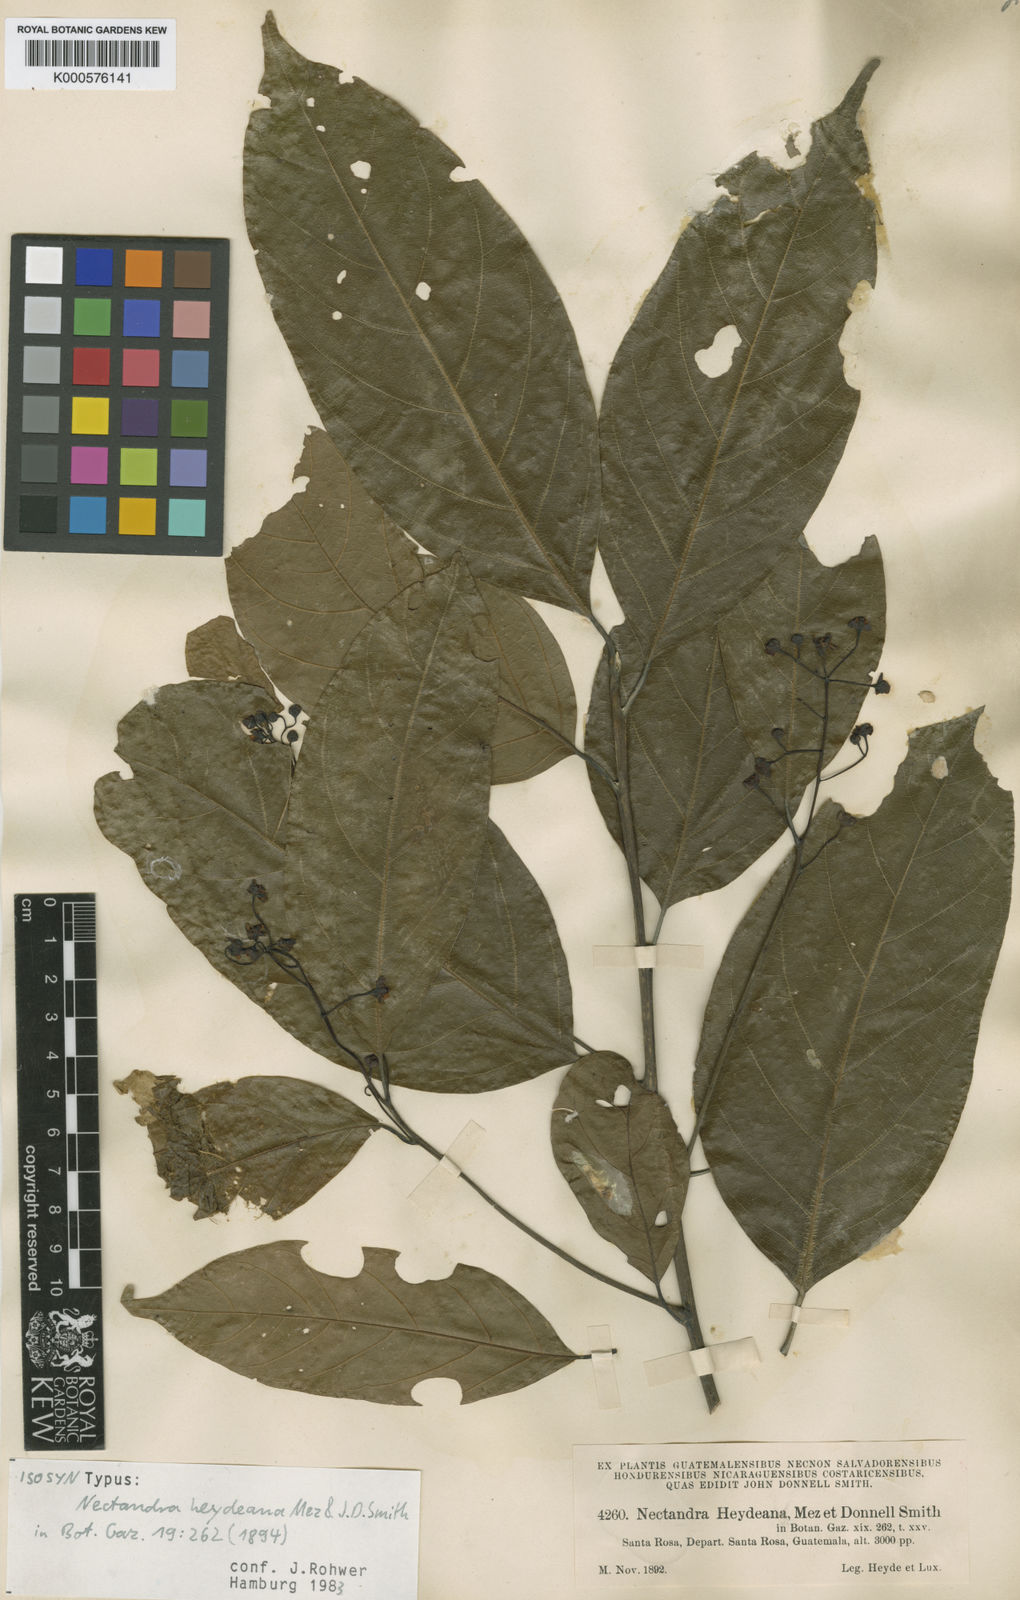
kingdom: Plantae
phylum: Tracheophyta
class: Magnoliopsida
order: Laurales
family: Lauraceae
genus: Ocotea
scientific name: Ocotea heydeana
